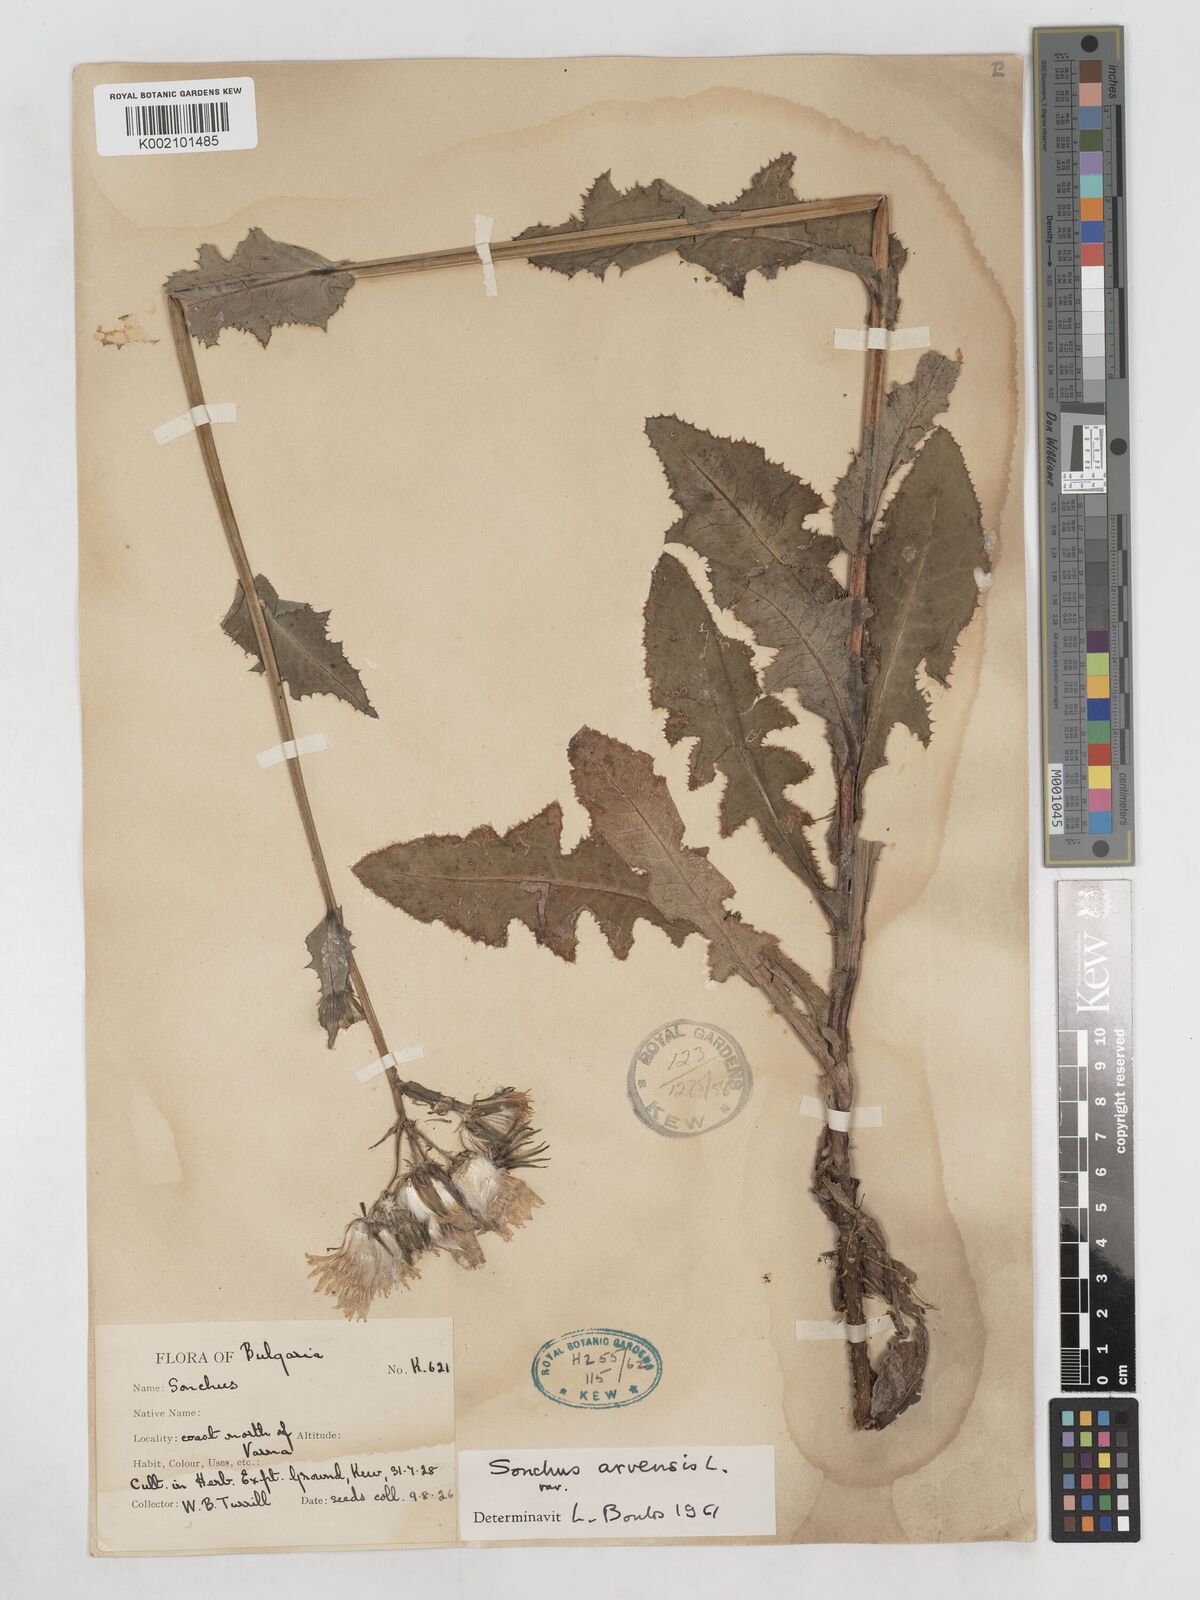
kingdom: Plantae
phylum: Tracheophyta
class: Magnoliopsida
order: Asterales
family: Asteraceae
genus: Sonchus
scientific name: Sonchus arvensis
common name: Perennial sow-thistle
